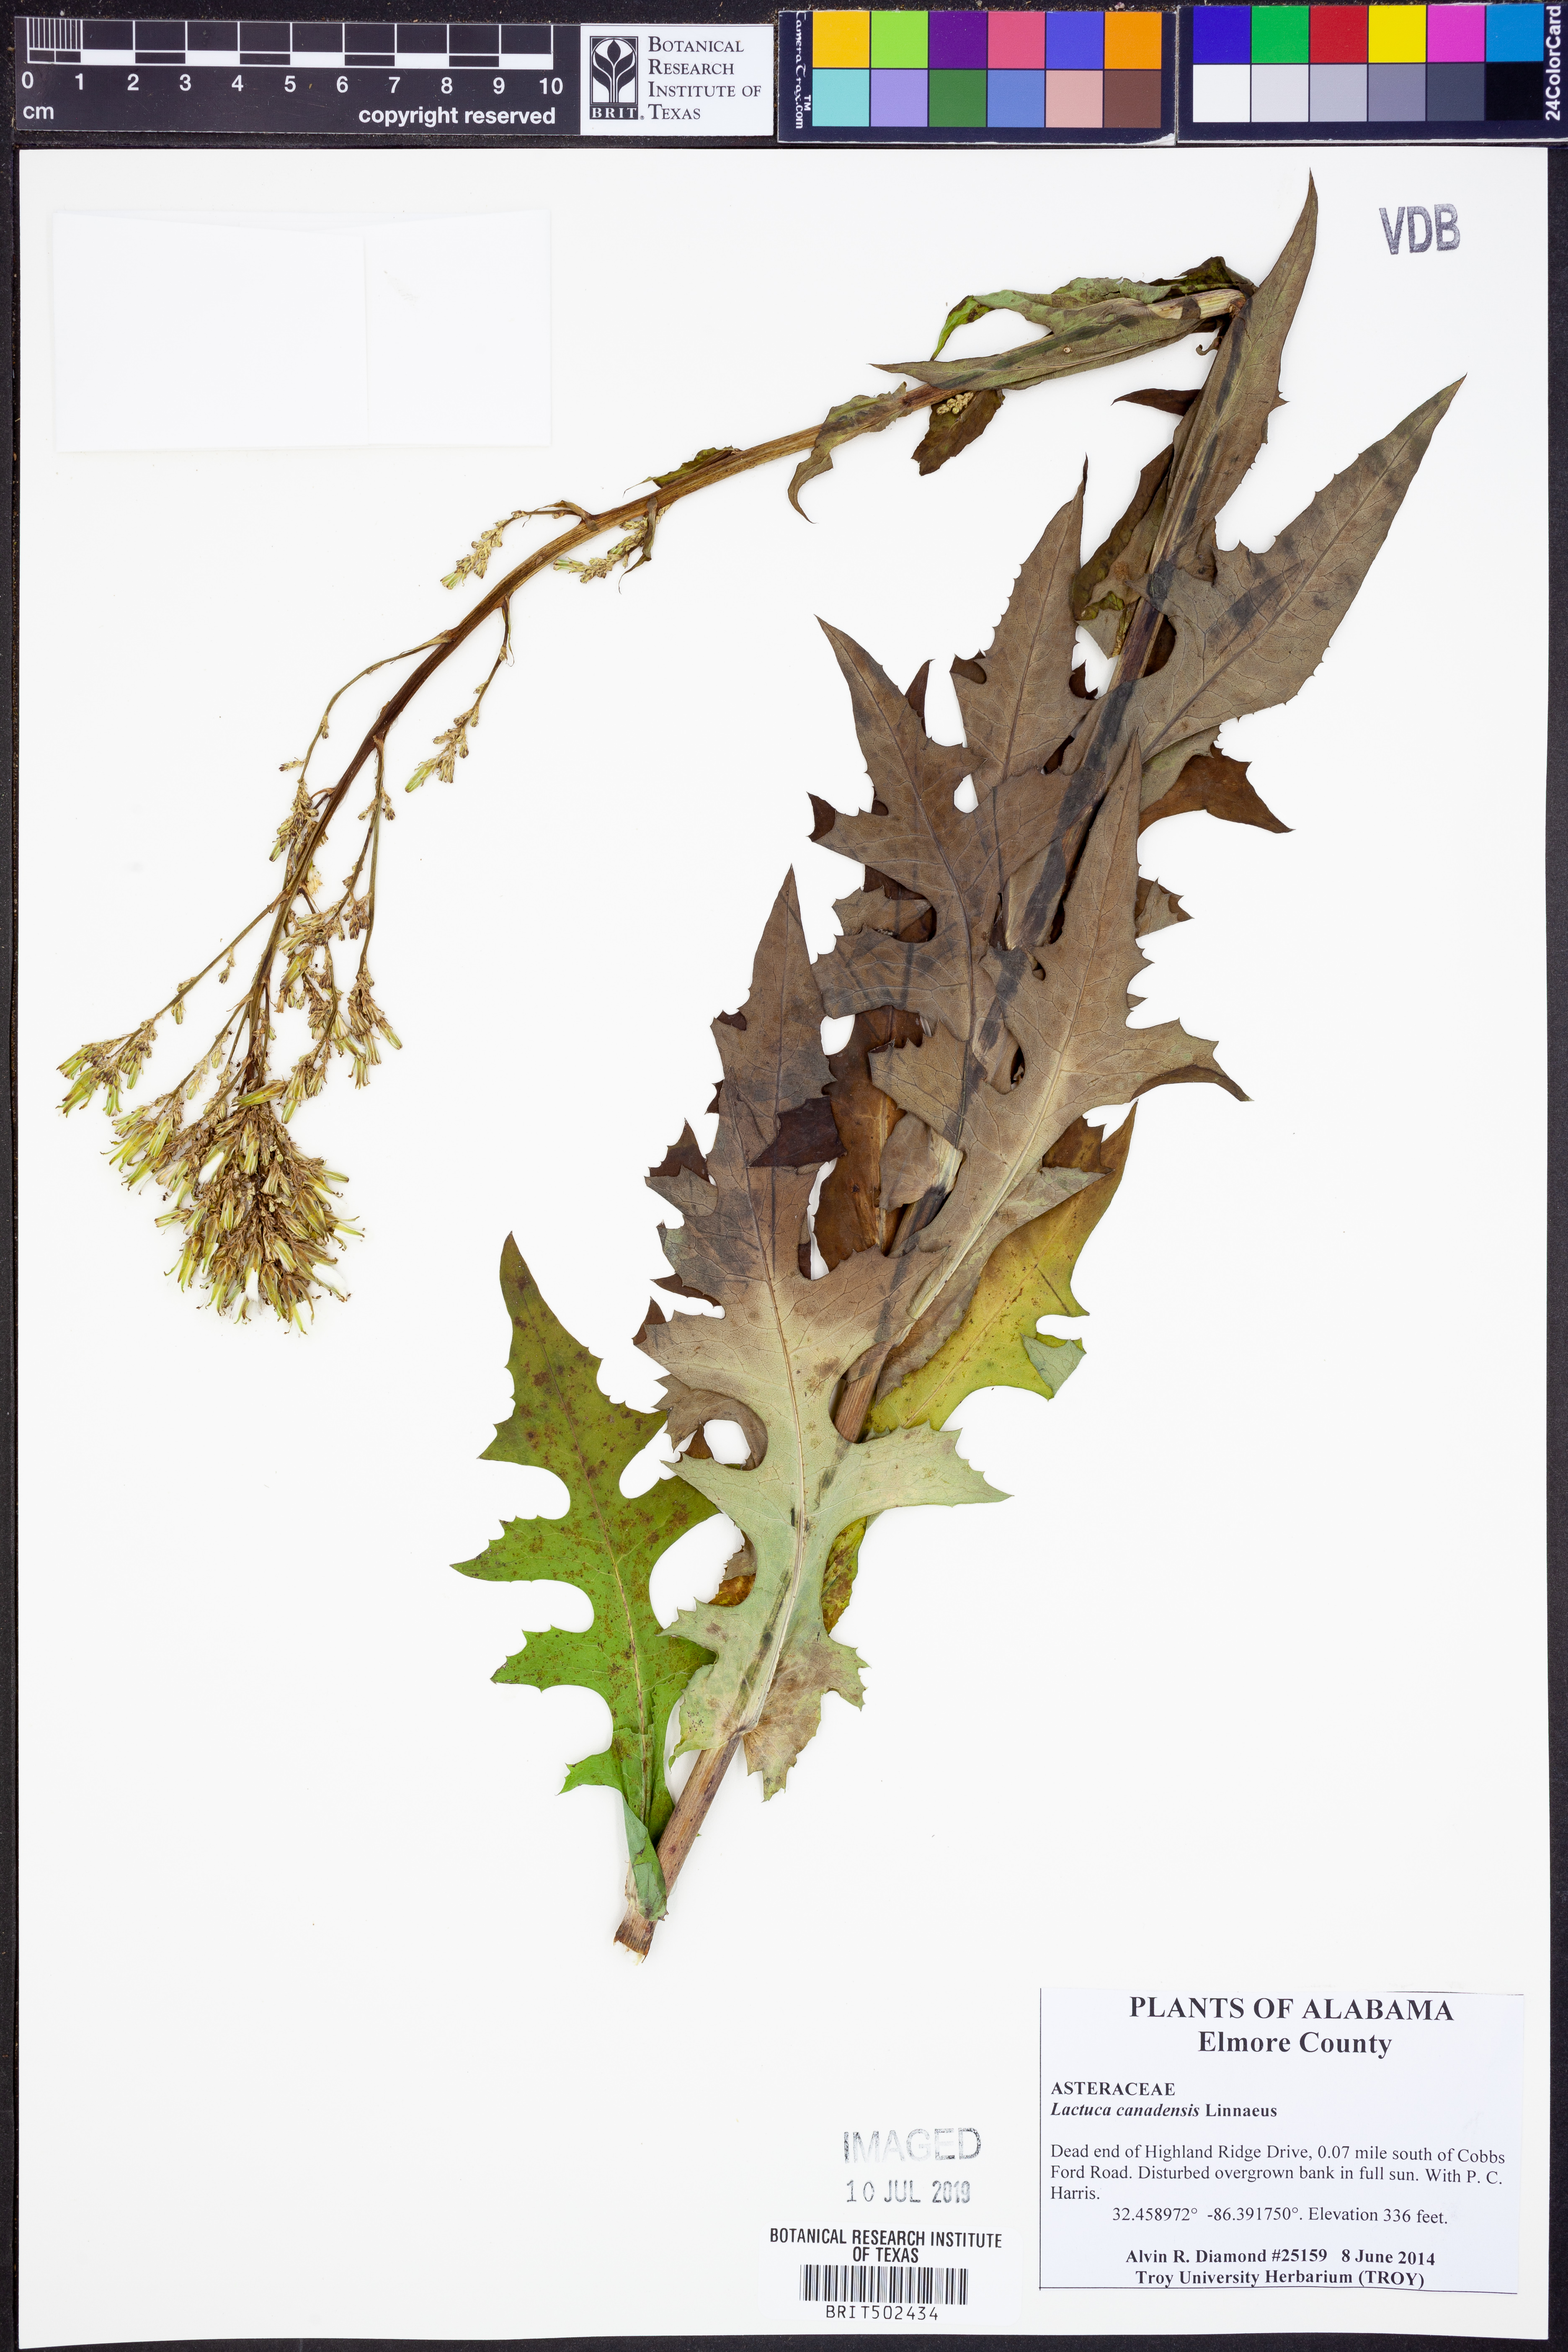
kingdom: Plantae
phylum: Tracheophyta
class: Magnoliopsida
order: Asterales
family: Asteraceae
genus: Lactuca
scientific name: Lactuca canadensis
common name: Canada lettuce
